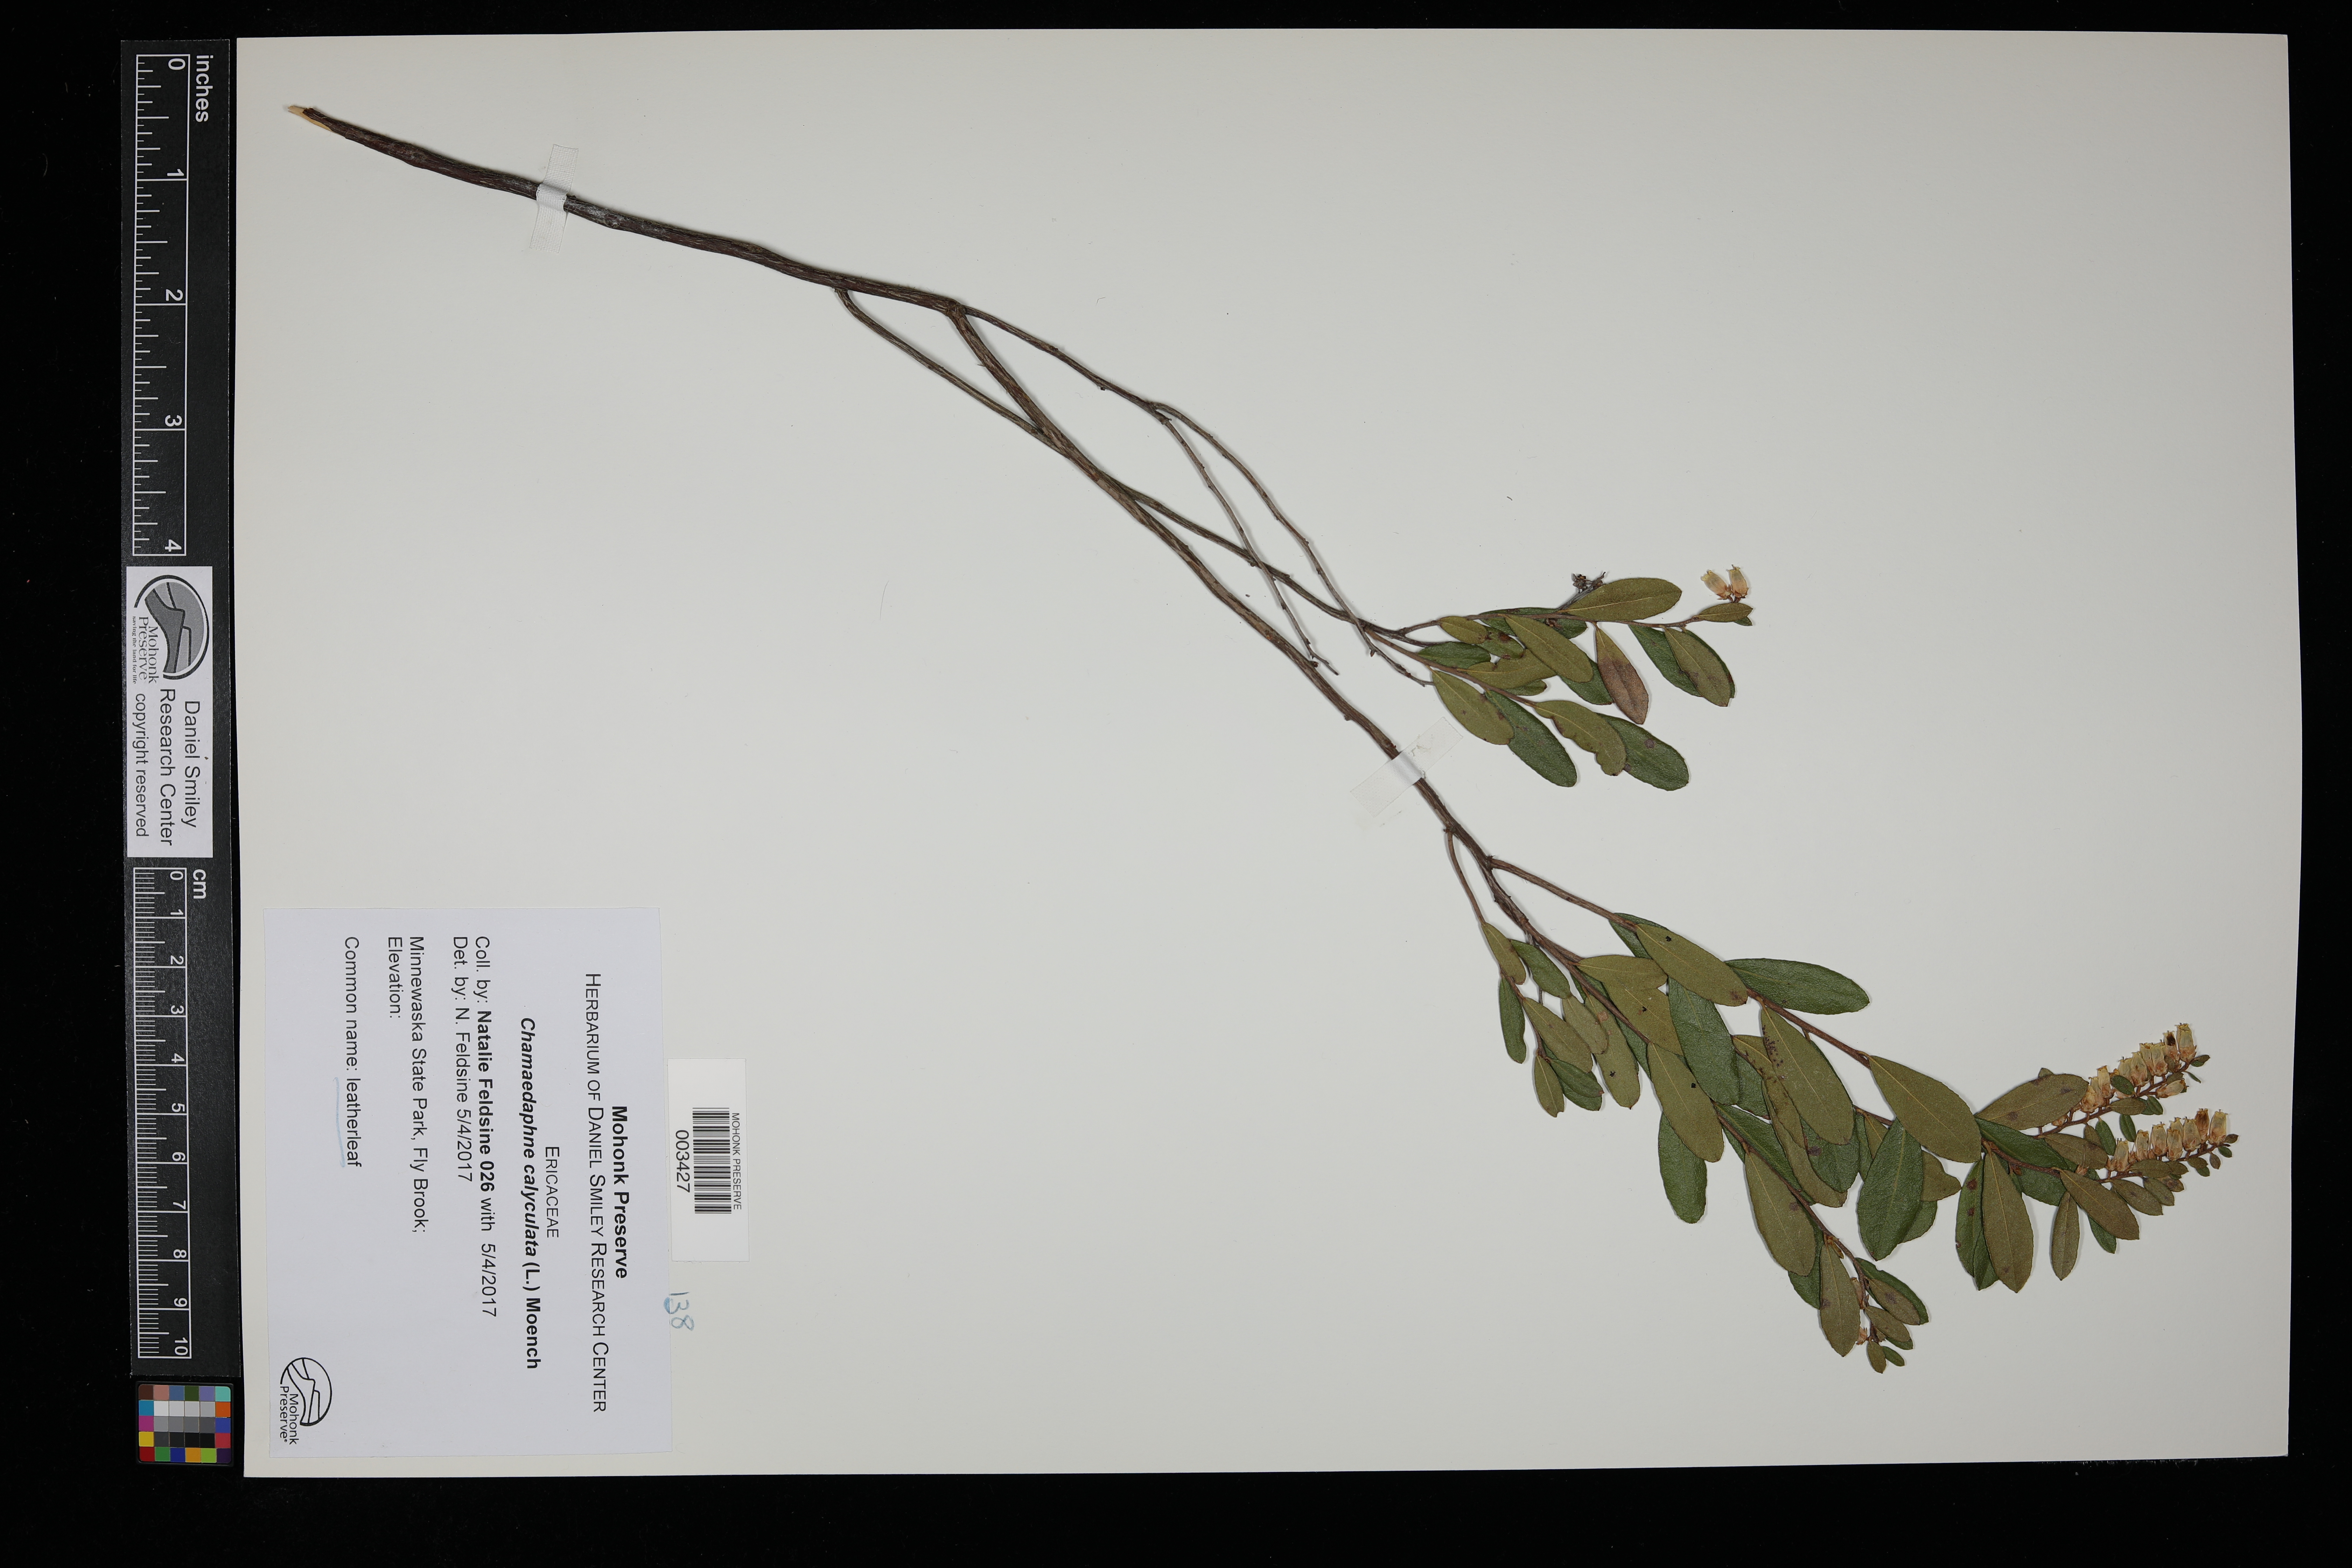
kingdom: Plantae
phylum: Tracheophyta
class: Magnoliopsida
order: Ericales
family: Ericaceae
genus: Chamaedaphne
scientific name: Chamaedaphne calyculata
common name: Leatherleaf
